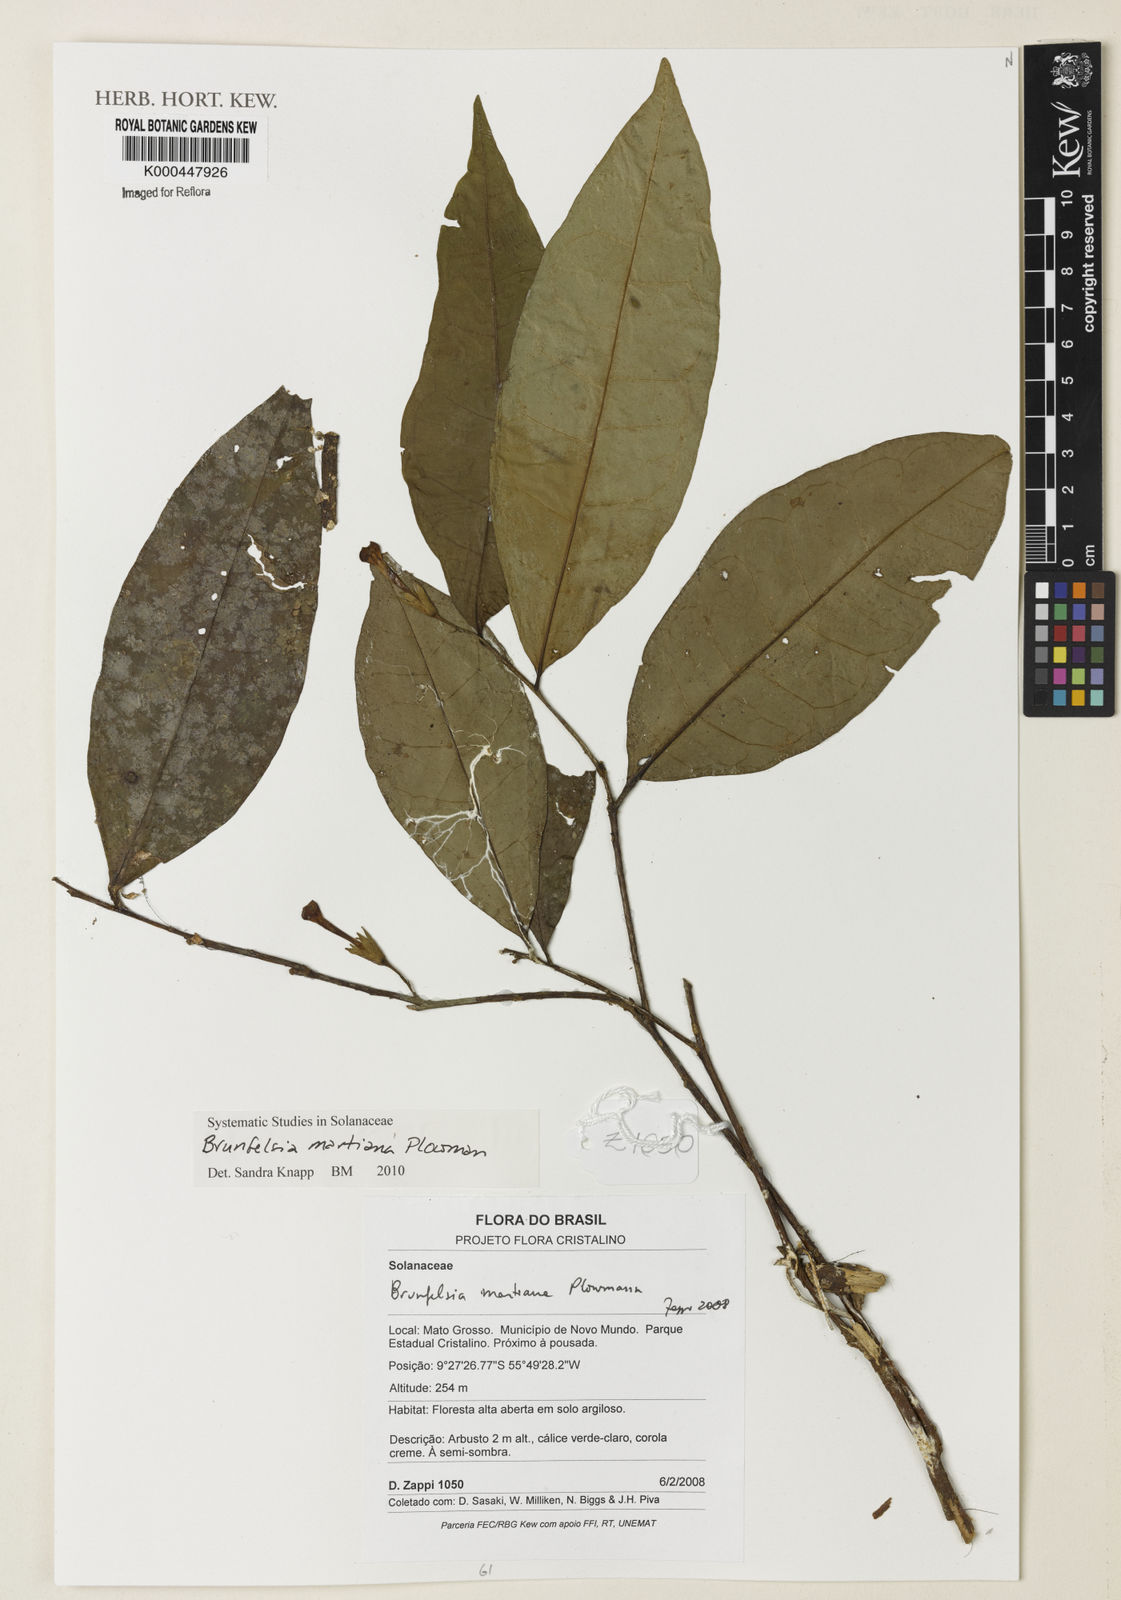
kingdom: Plantae
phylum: Tracheophyta
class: Magnoliopsida
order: Solanales
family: Solanaceae
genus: Brunfelsia
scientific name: Brunfelsia martiana
